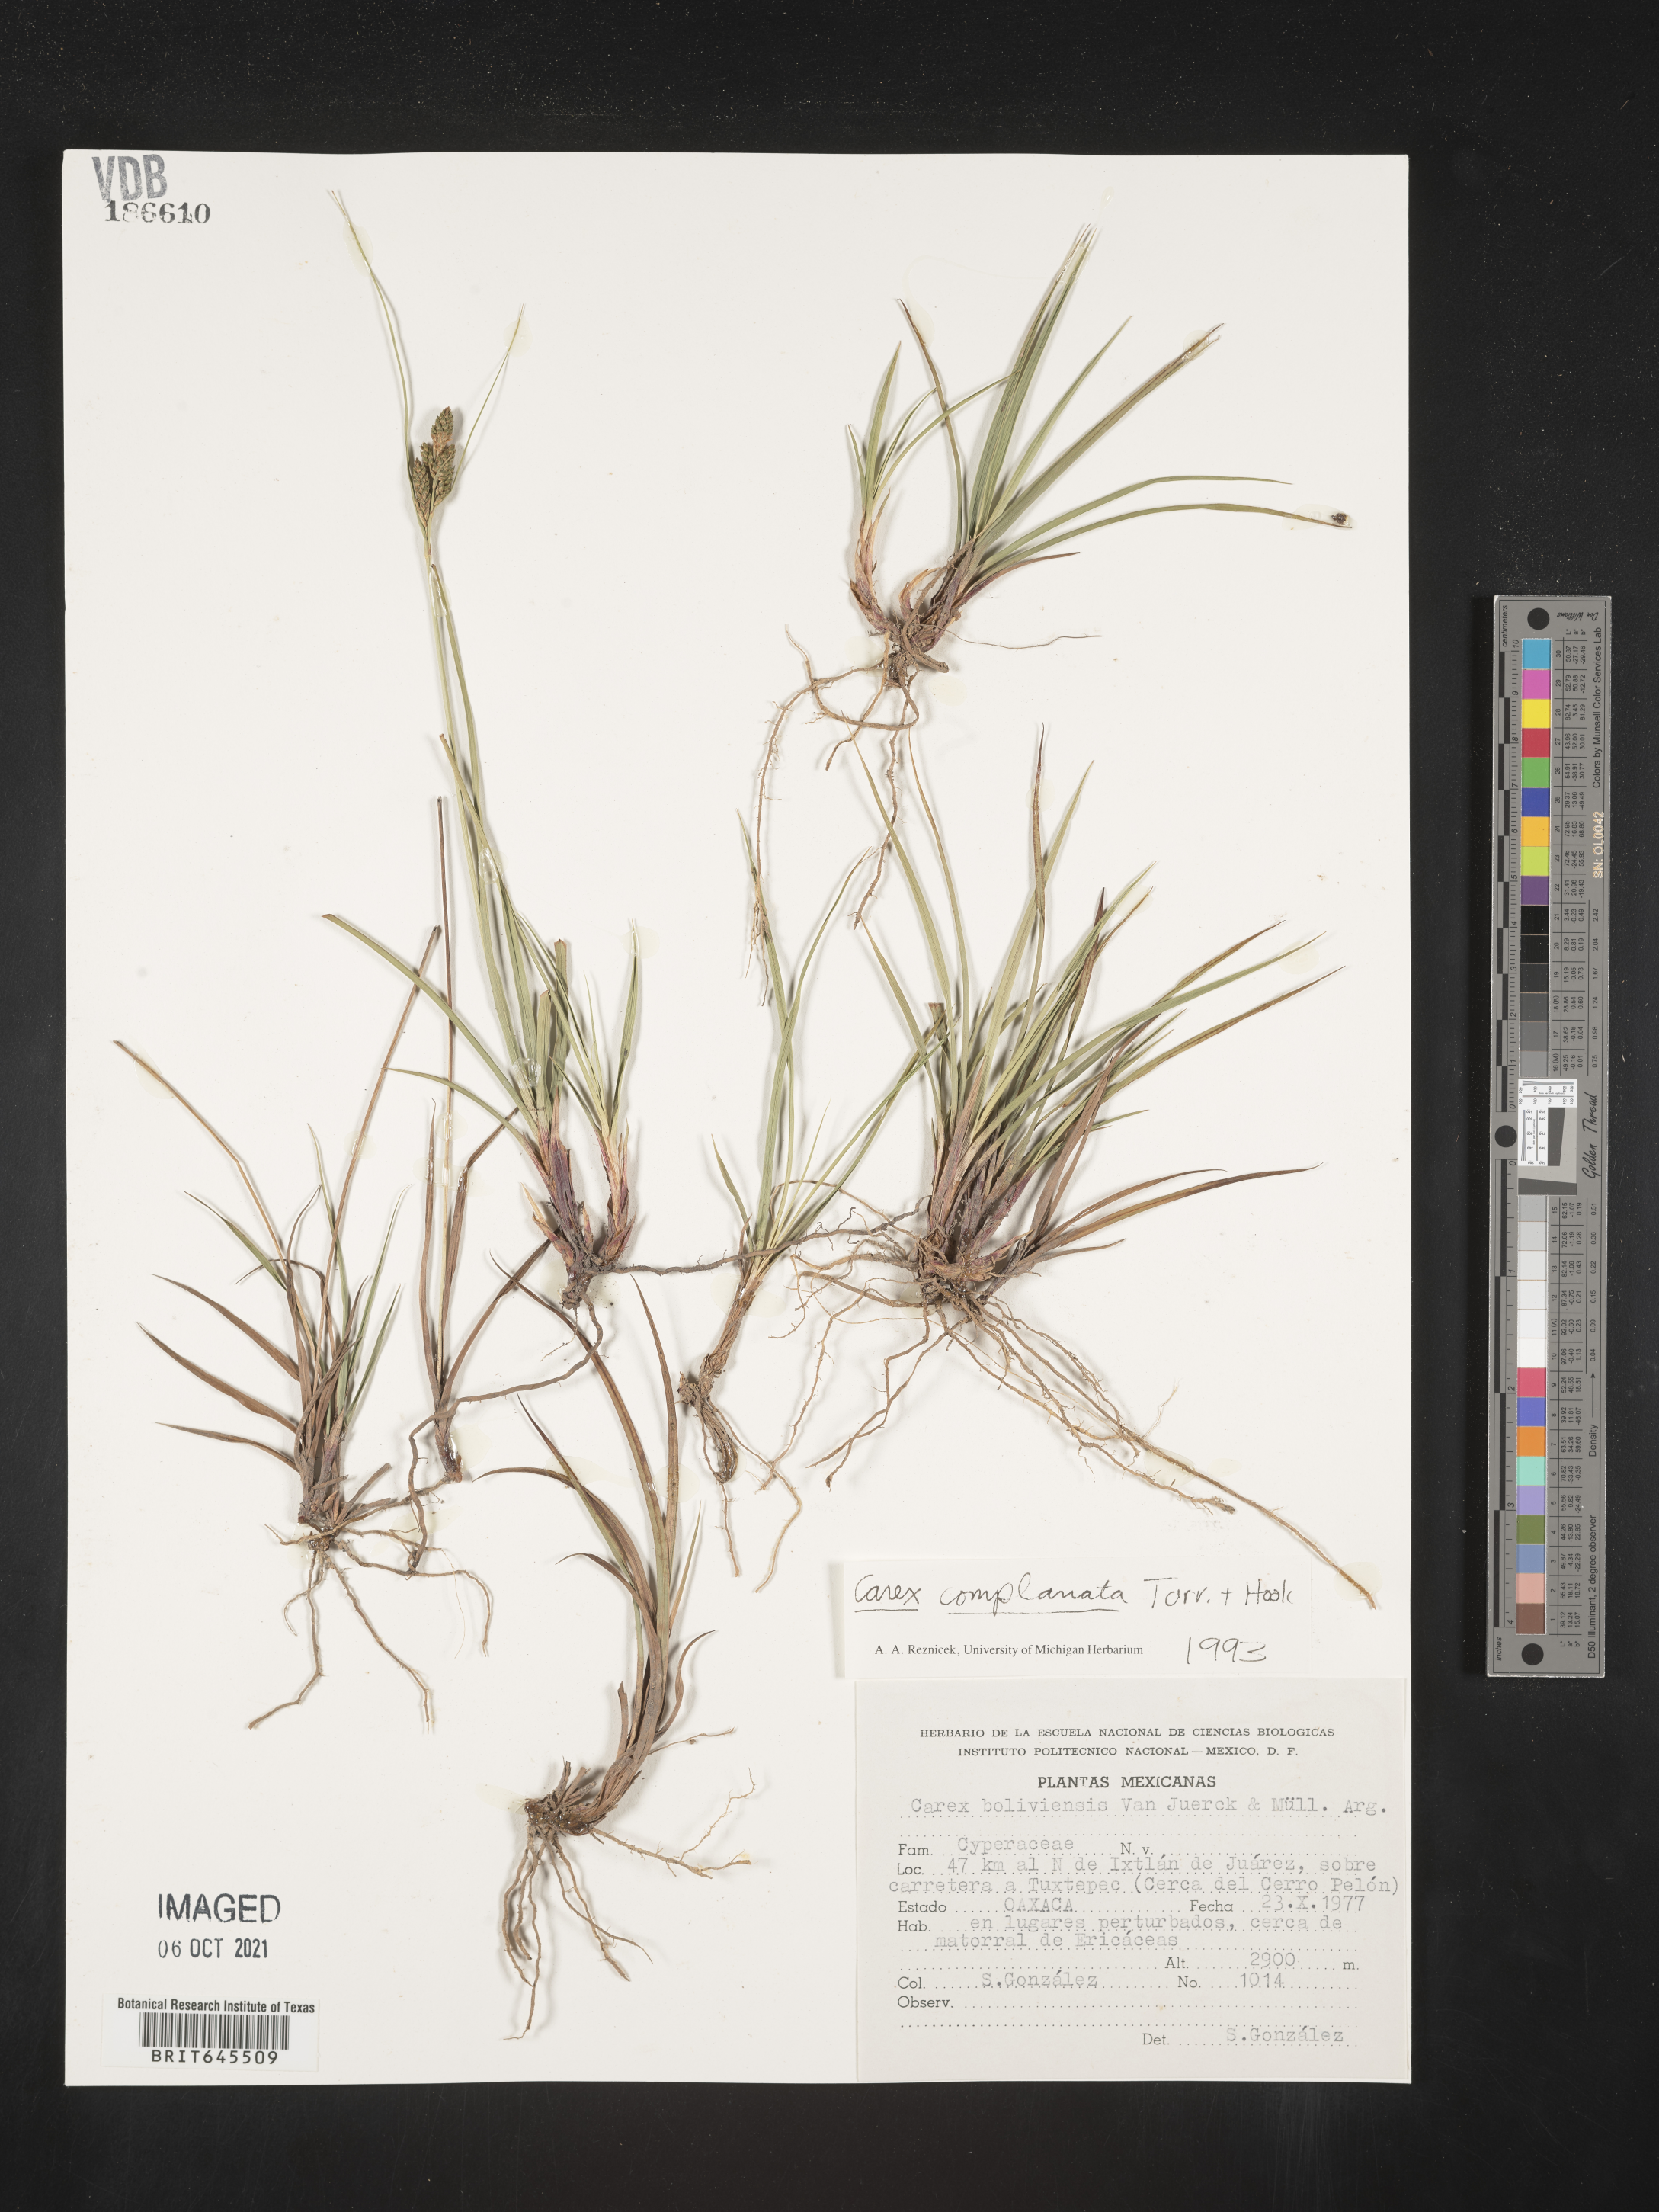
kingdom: Plantae
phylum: Tracheophyta
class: Liliopsida
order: Poales
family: Cyperaceae
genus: Carex
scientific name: Carex
